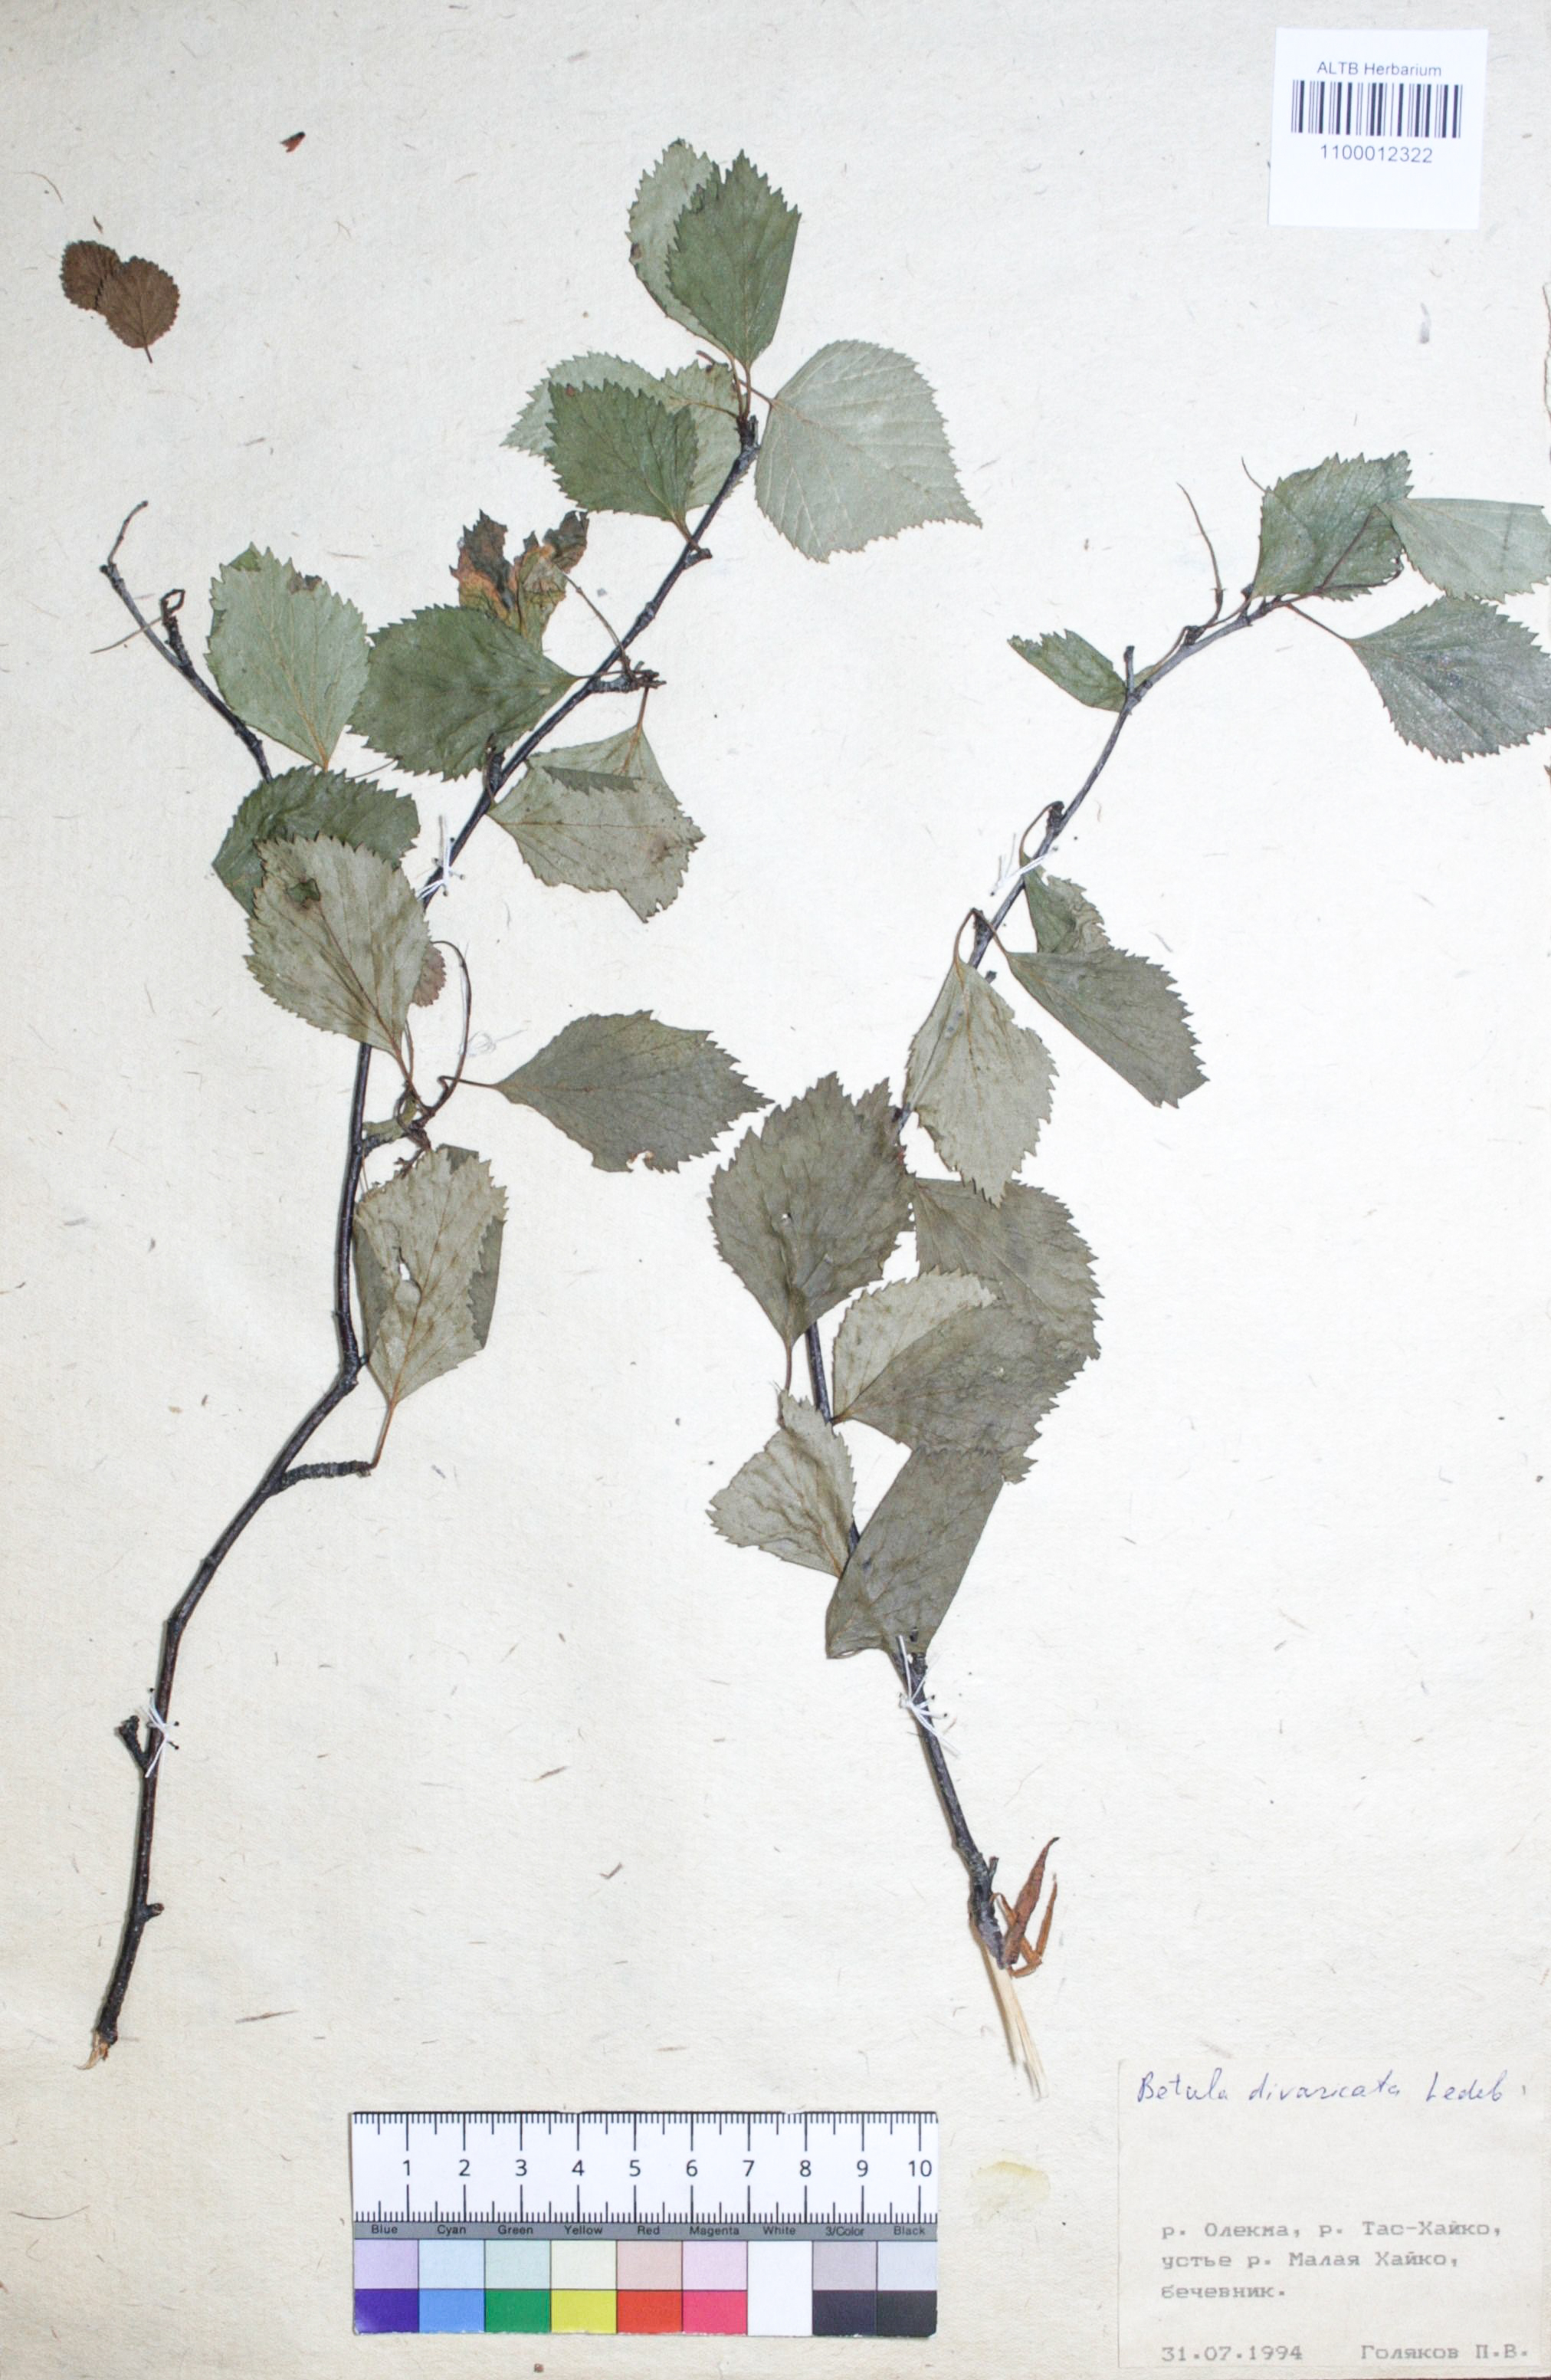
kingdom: Plantae
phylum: Tracheophyta
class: Magnoliopsida
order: Fagales
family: Betulaceae
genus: Betula
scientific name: Betula fruticosa
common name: Japanese bog birch
